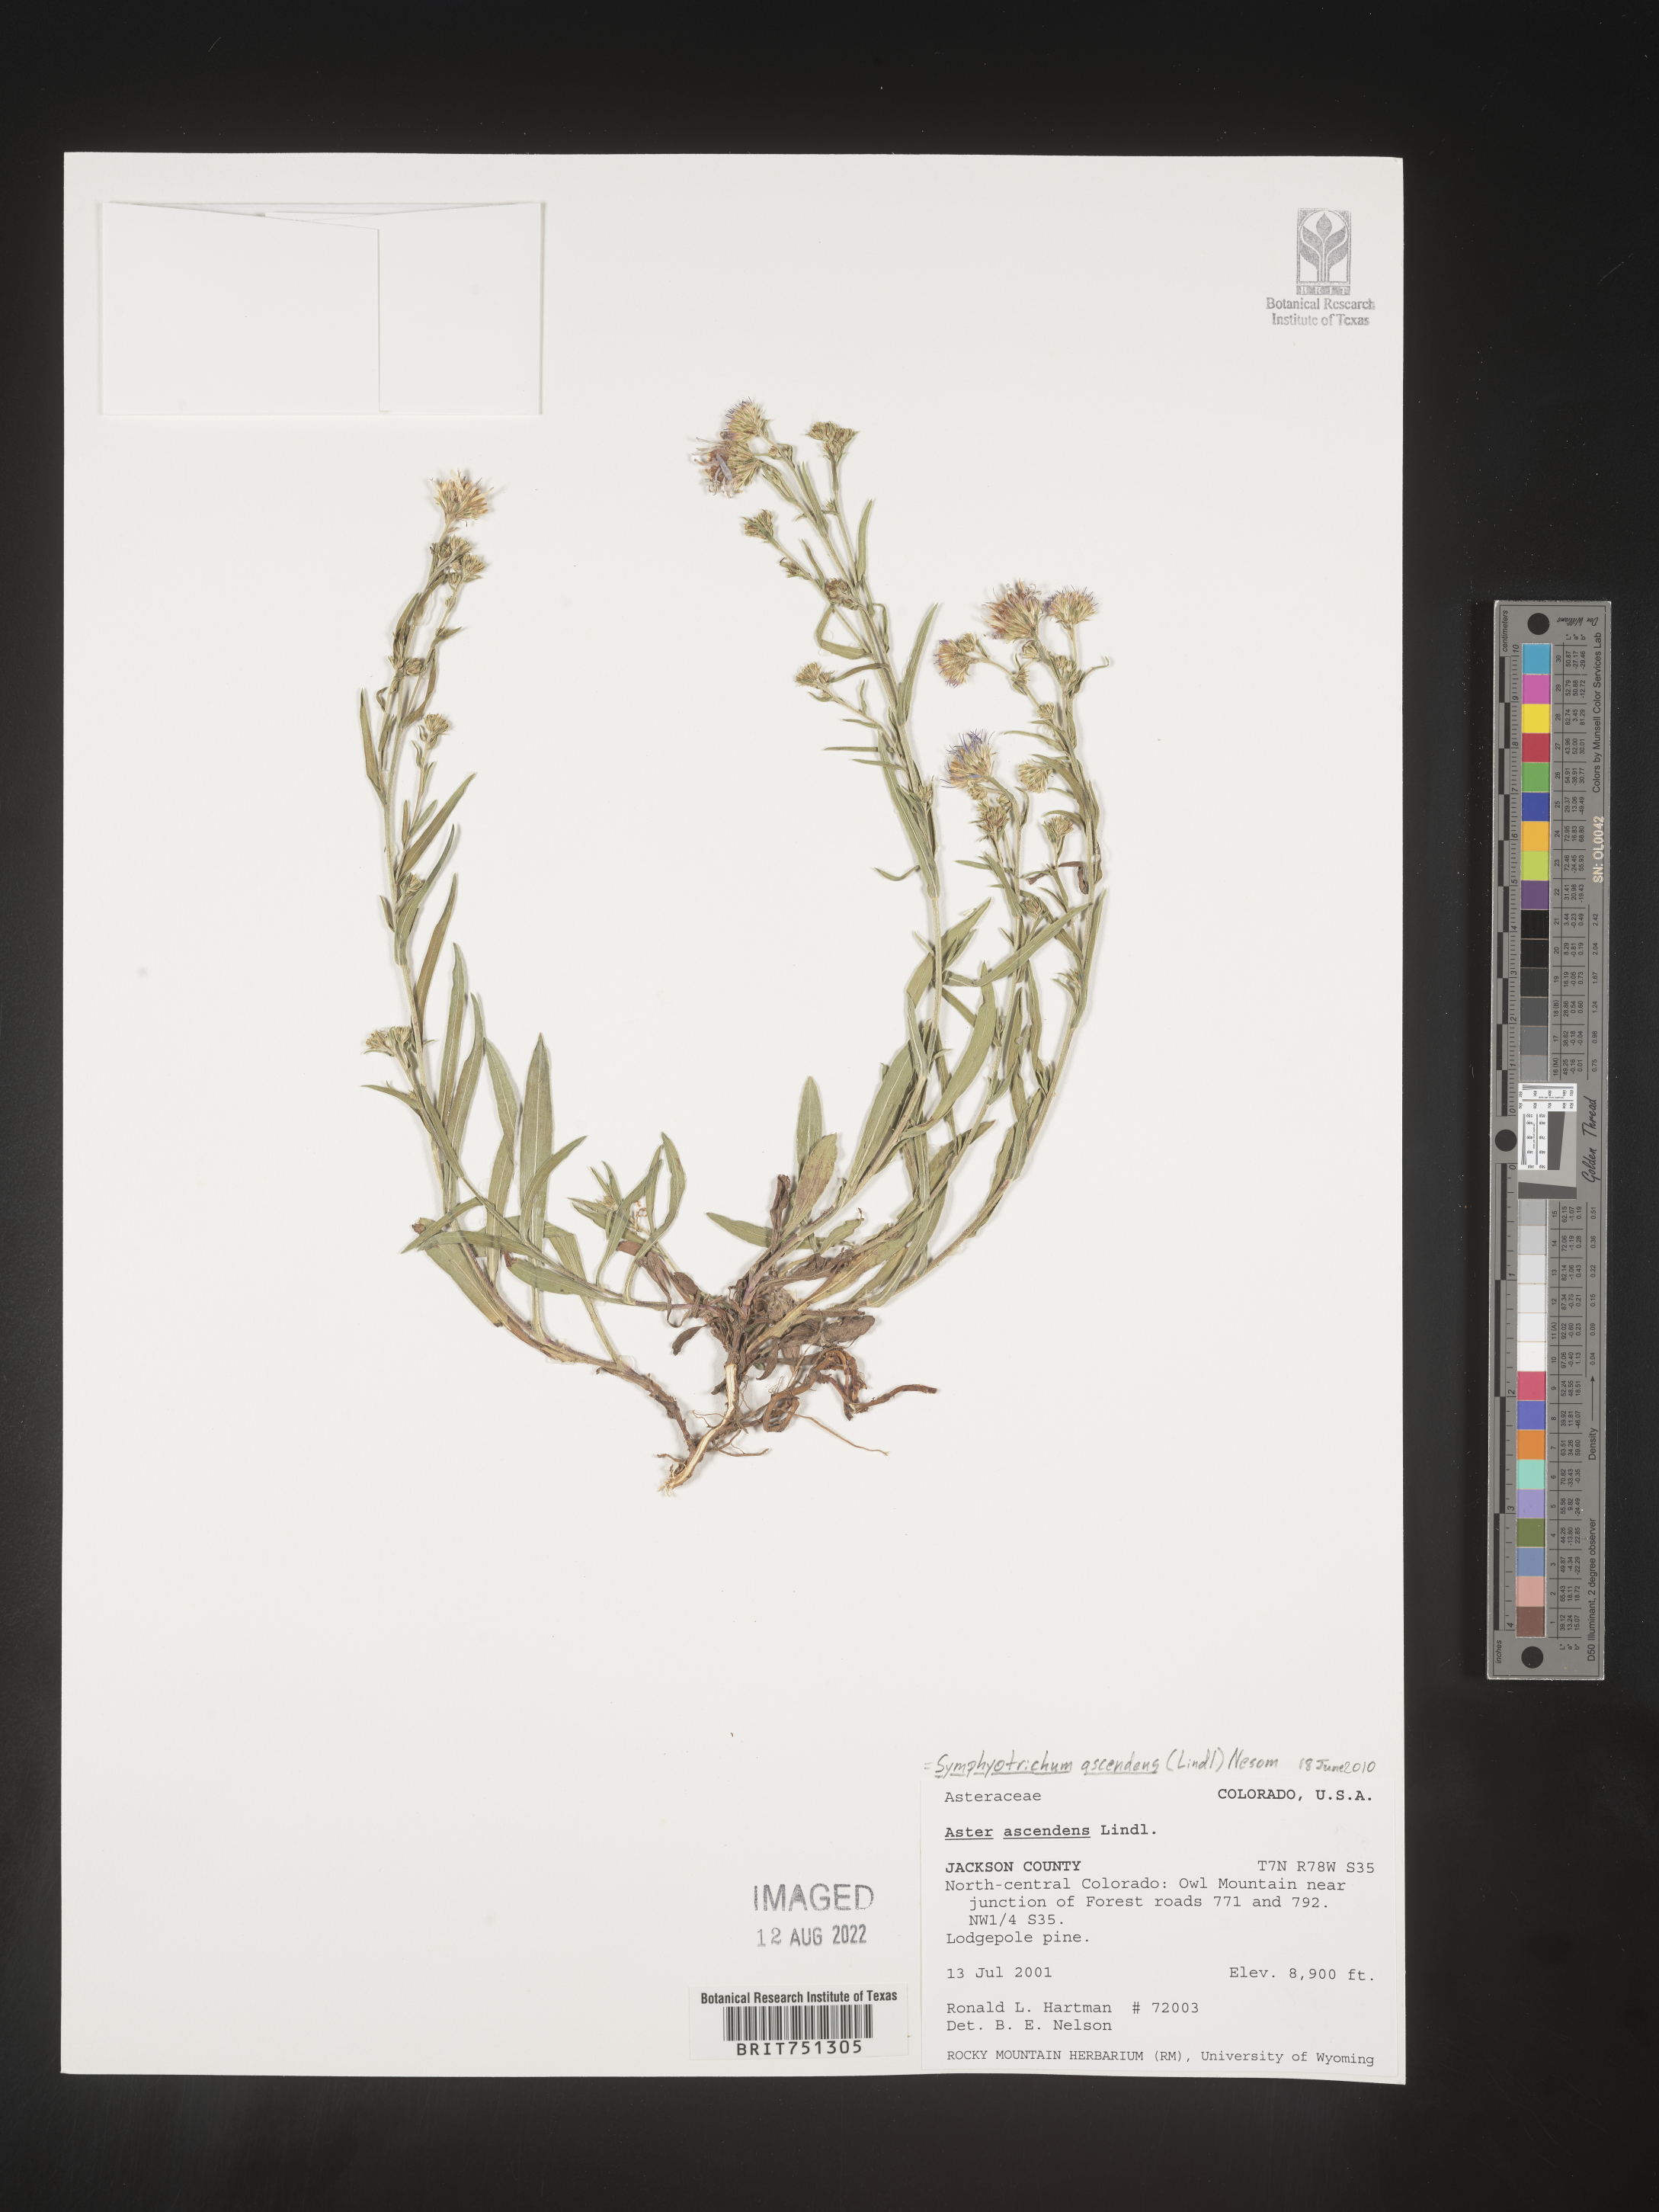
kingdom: Plantae
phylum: Tracheophyta
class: Magnoliopsida
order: Asterales
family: Asteraceae
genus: Symphyotrichum
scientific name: Symphyotrichum ascendens
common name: Intermountain aster
